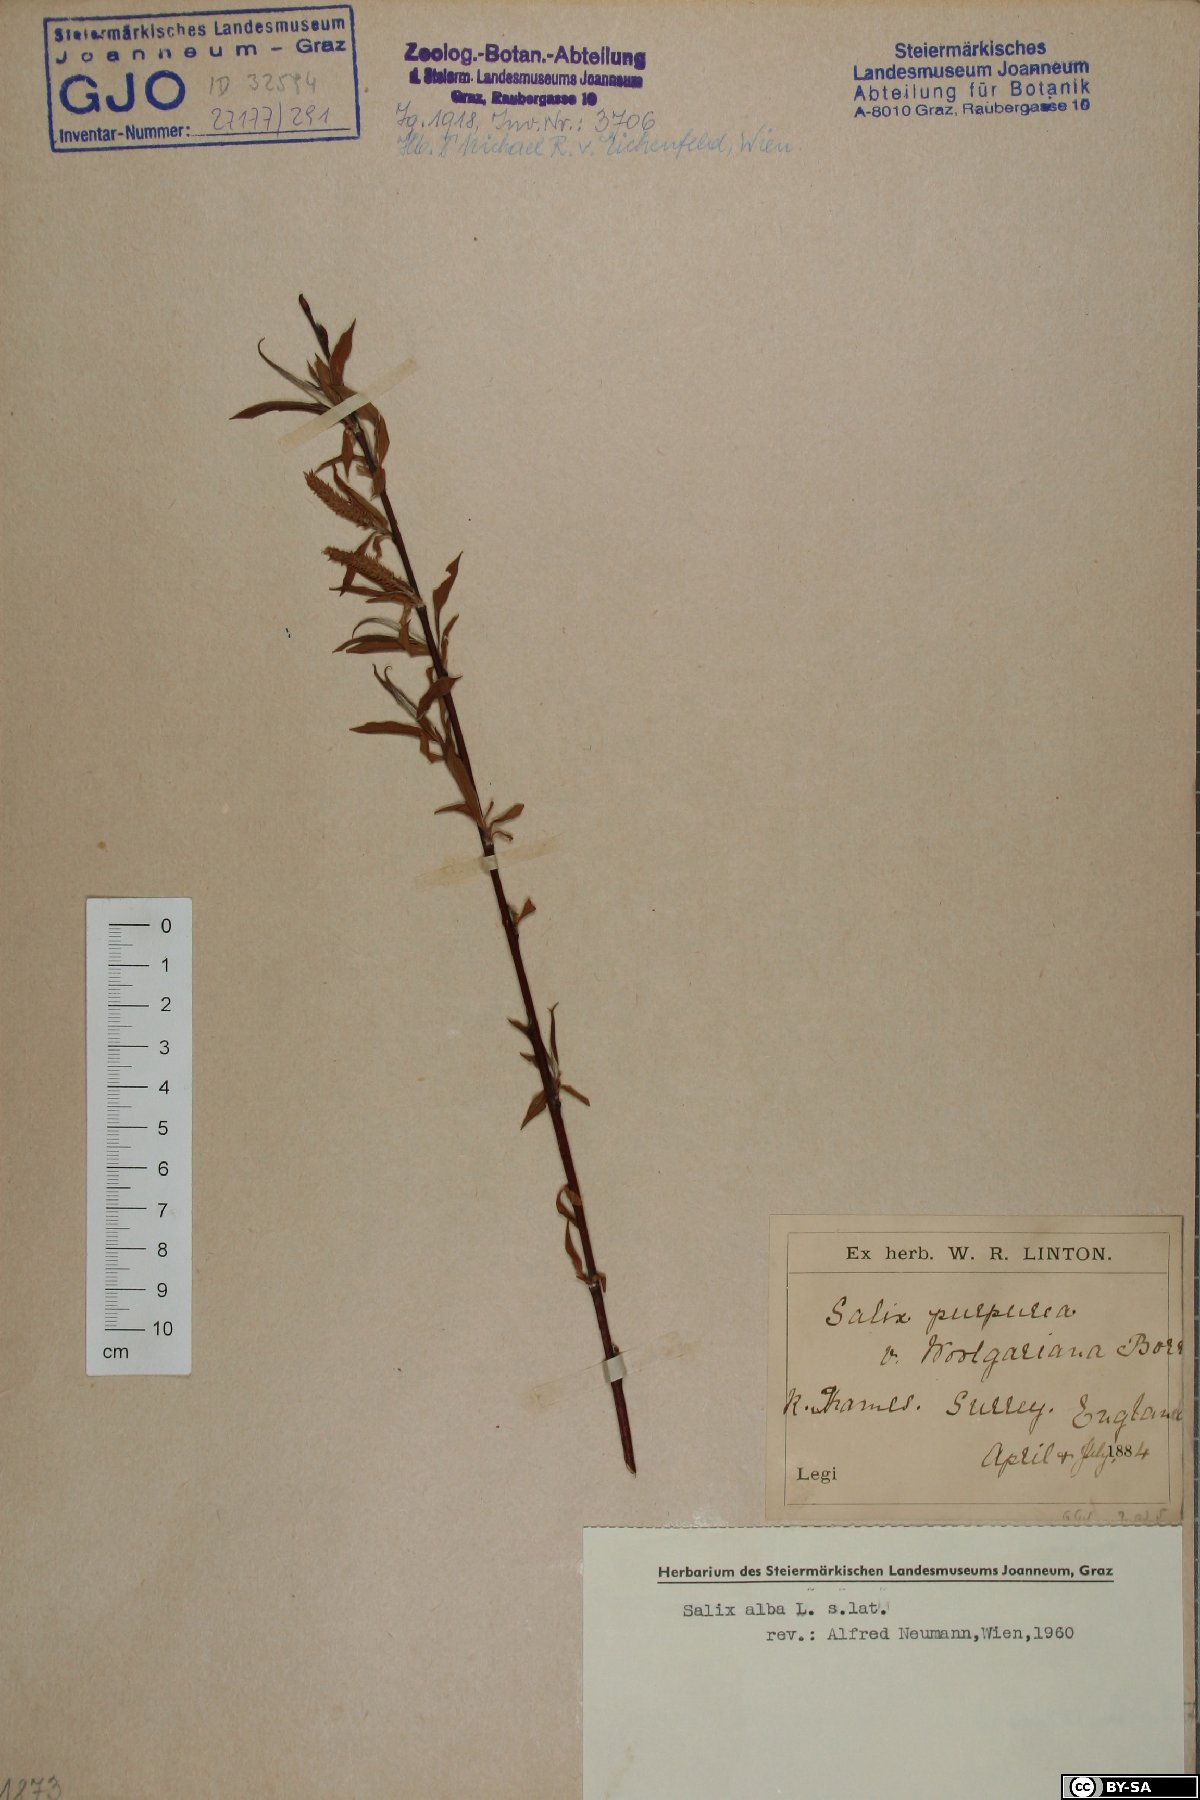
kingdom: Plantae
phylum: Tracheophyta
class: Magnoliopsida
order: Malpighiales
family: Salicaceae
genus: Salix
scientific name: Salix alba
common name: White willow
